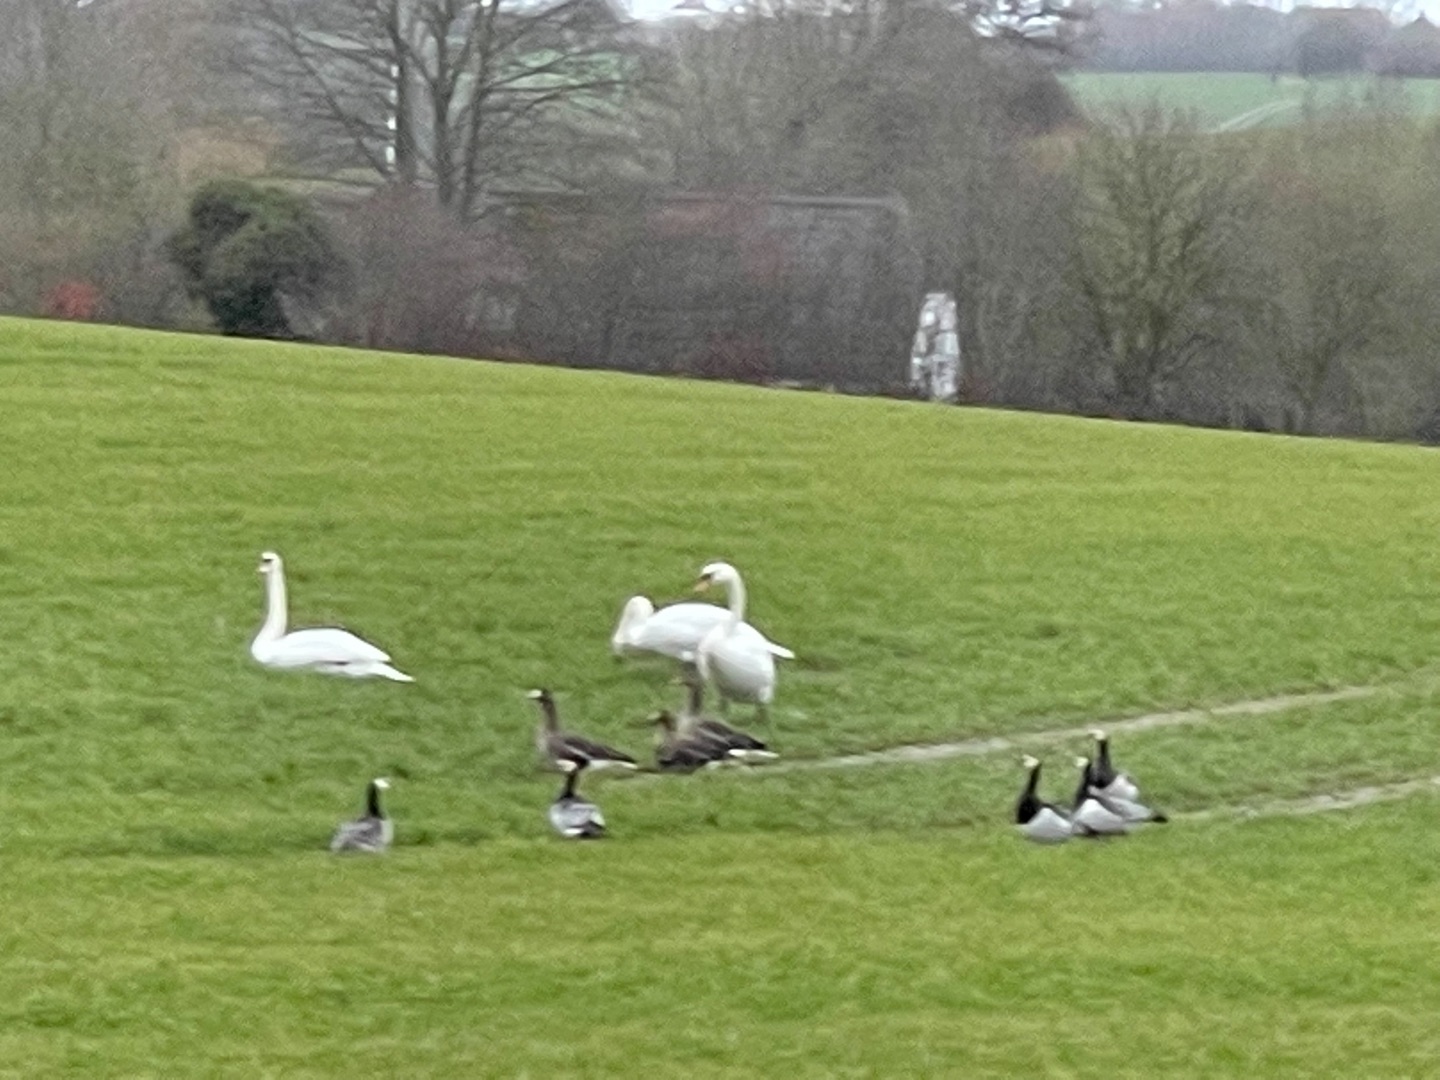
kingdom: Animalia
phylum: Chordata
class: Aves
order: Anseriformes
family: Anatidae
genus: Branta
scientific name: Branta leucopsis
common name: Bramgås
